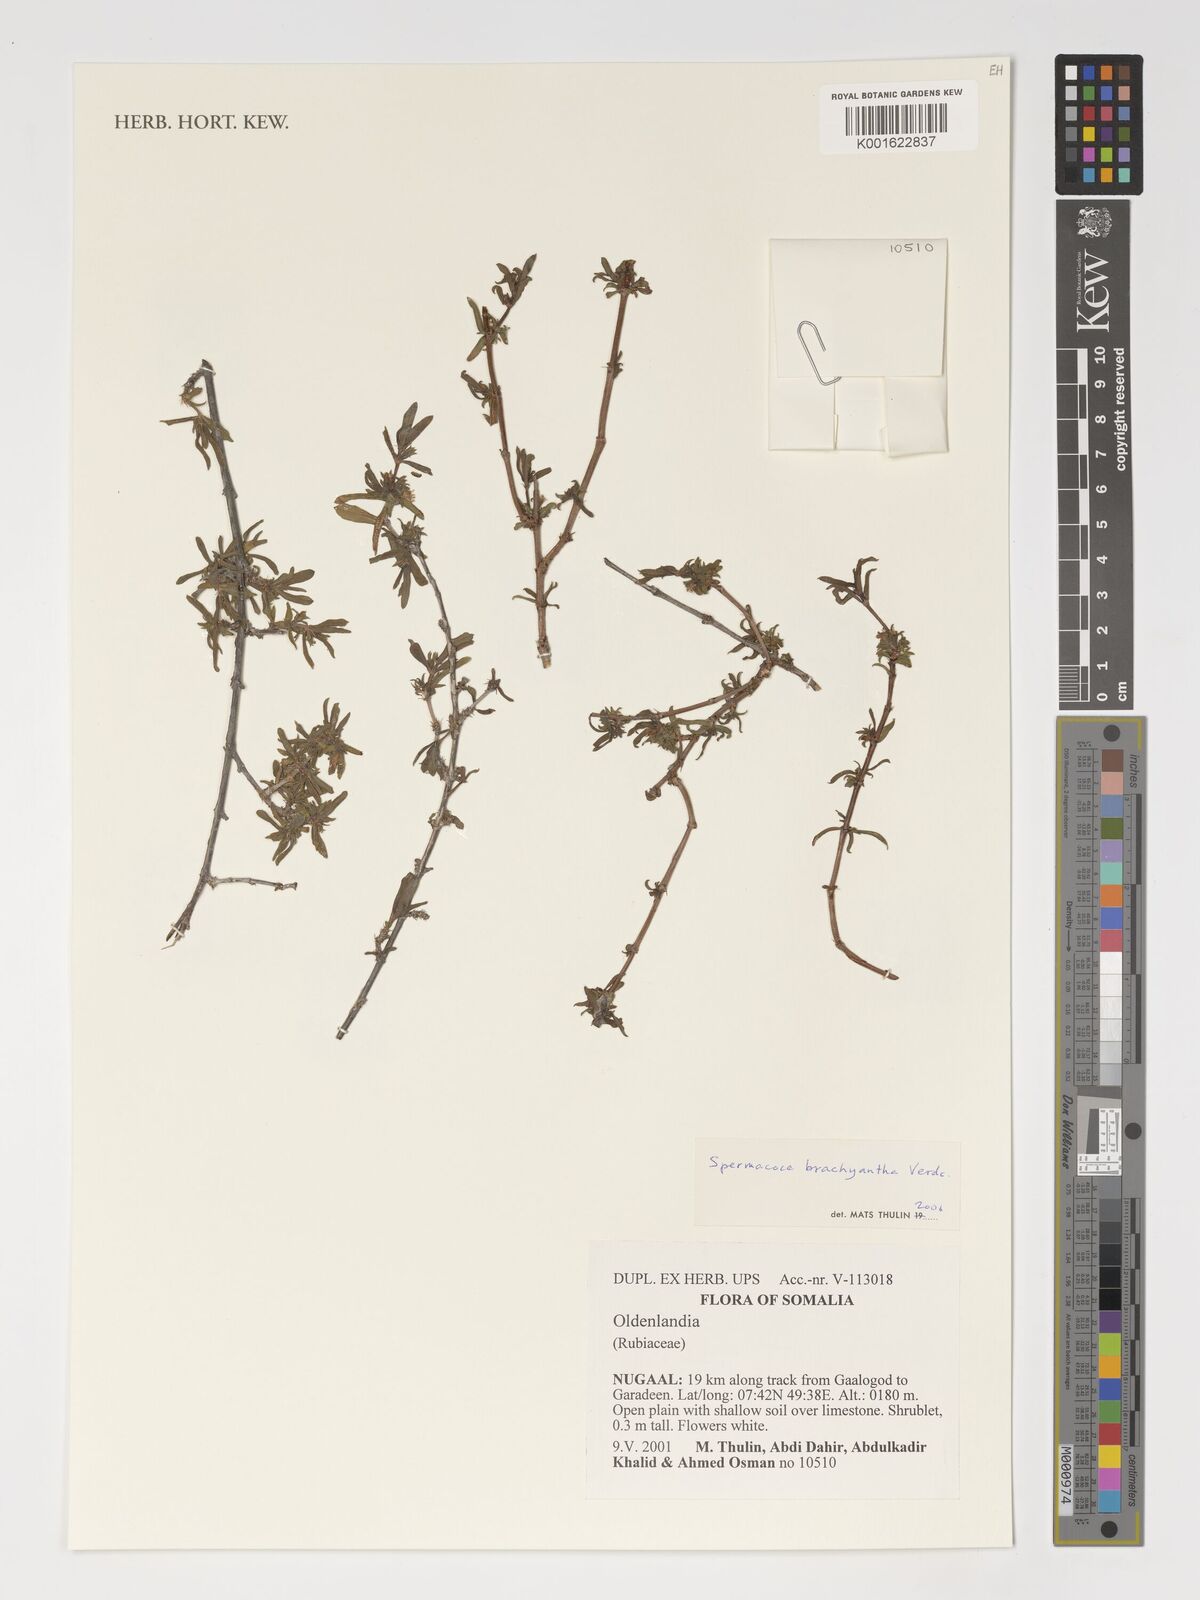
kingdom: Plantae
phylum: Tracheophyta
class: Magnoliopsida
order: Gentianales
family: Rubiaceae
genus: Spermacoce
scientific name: Spermacoce brachyantha
